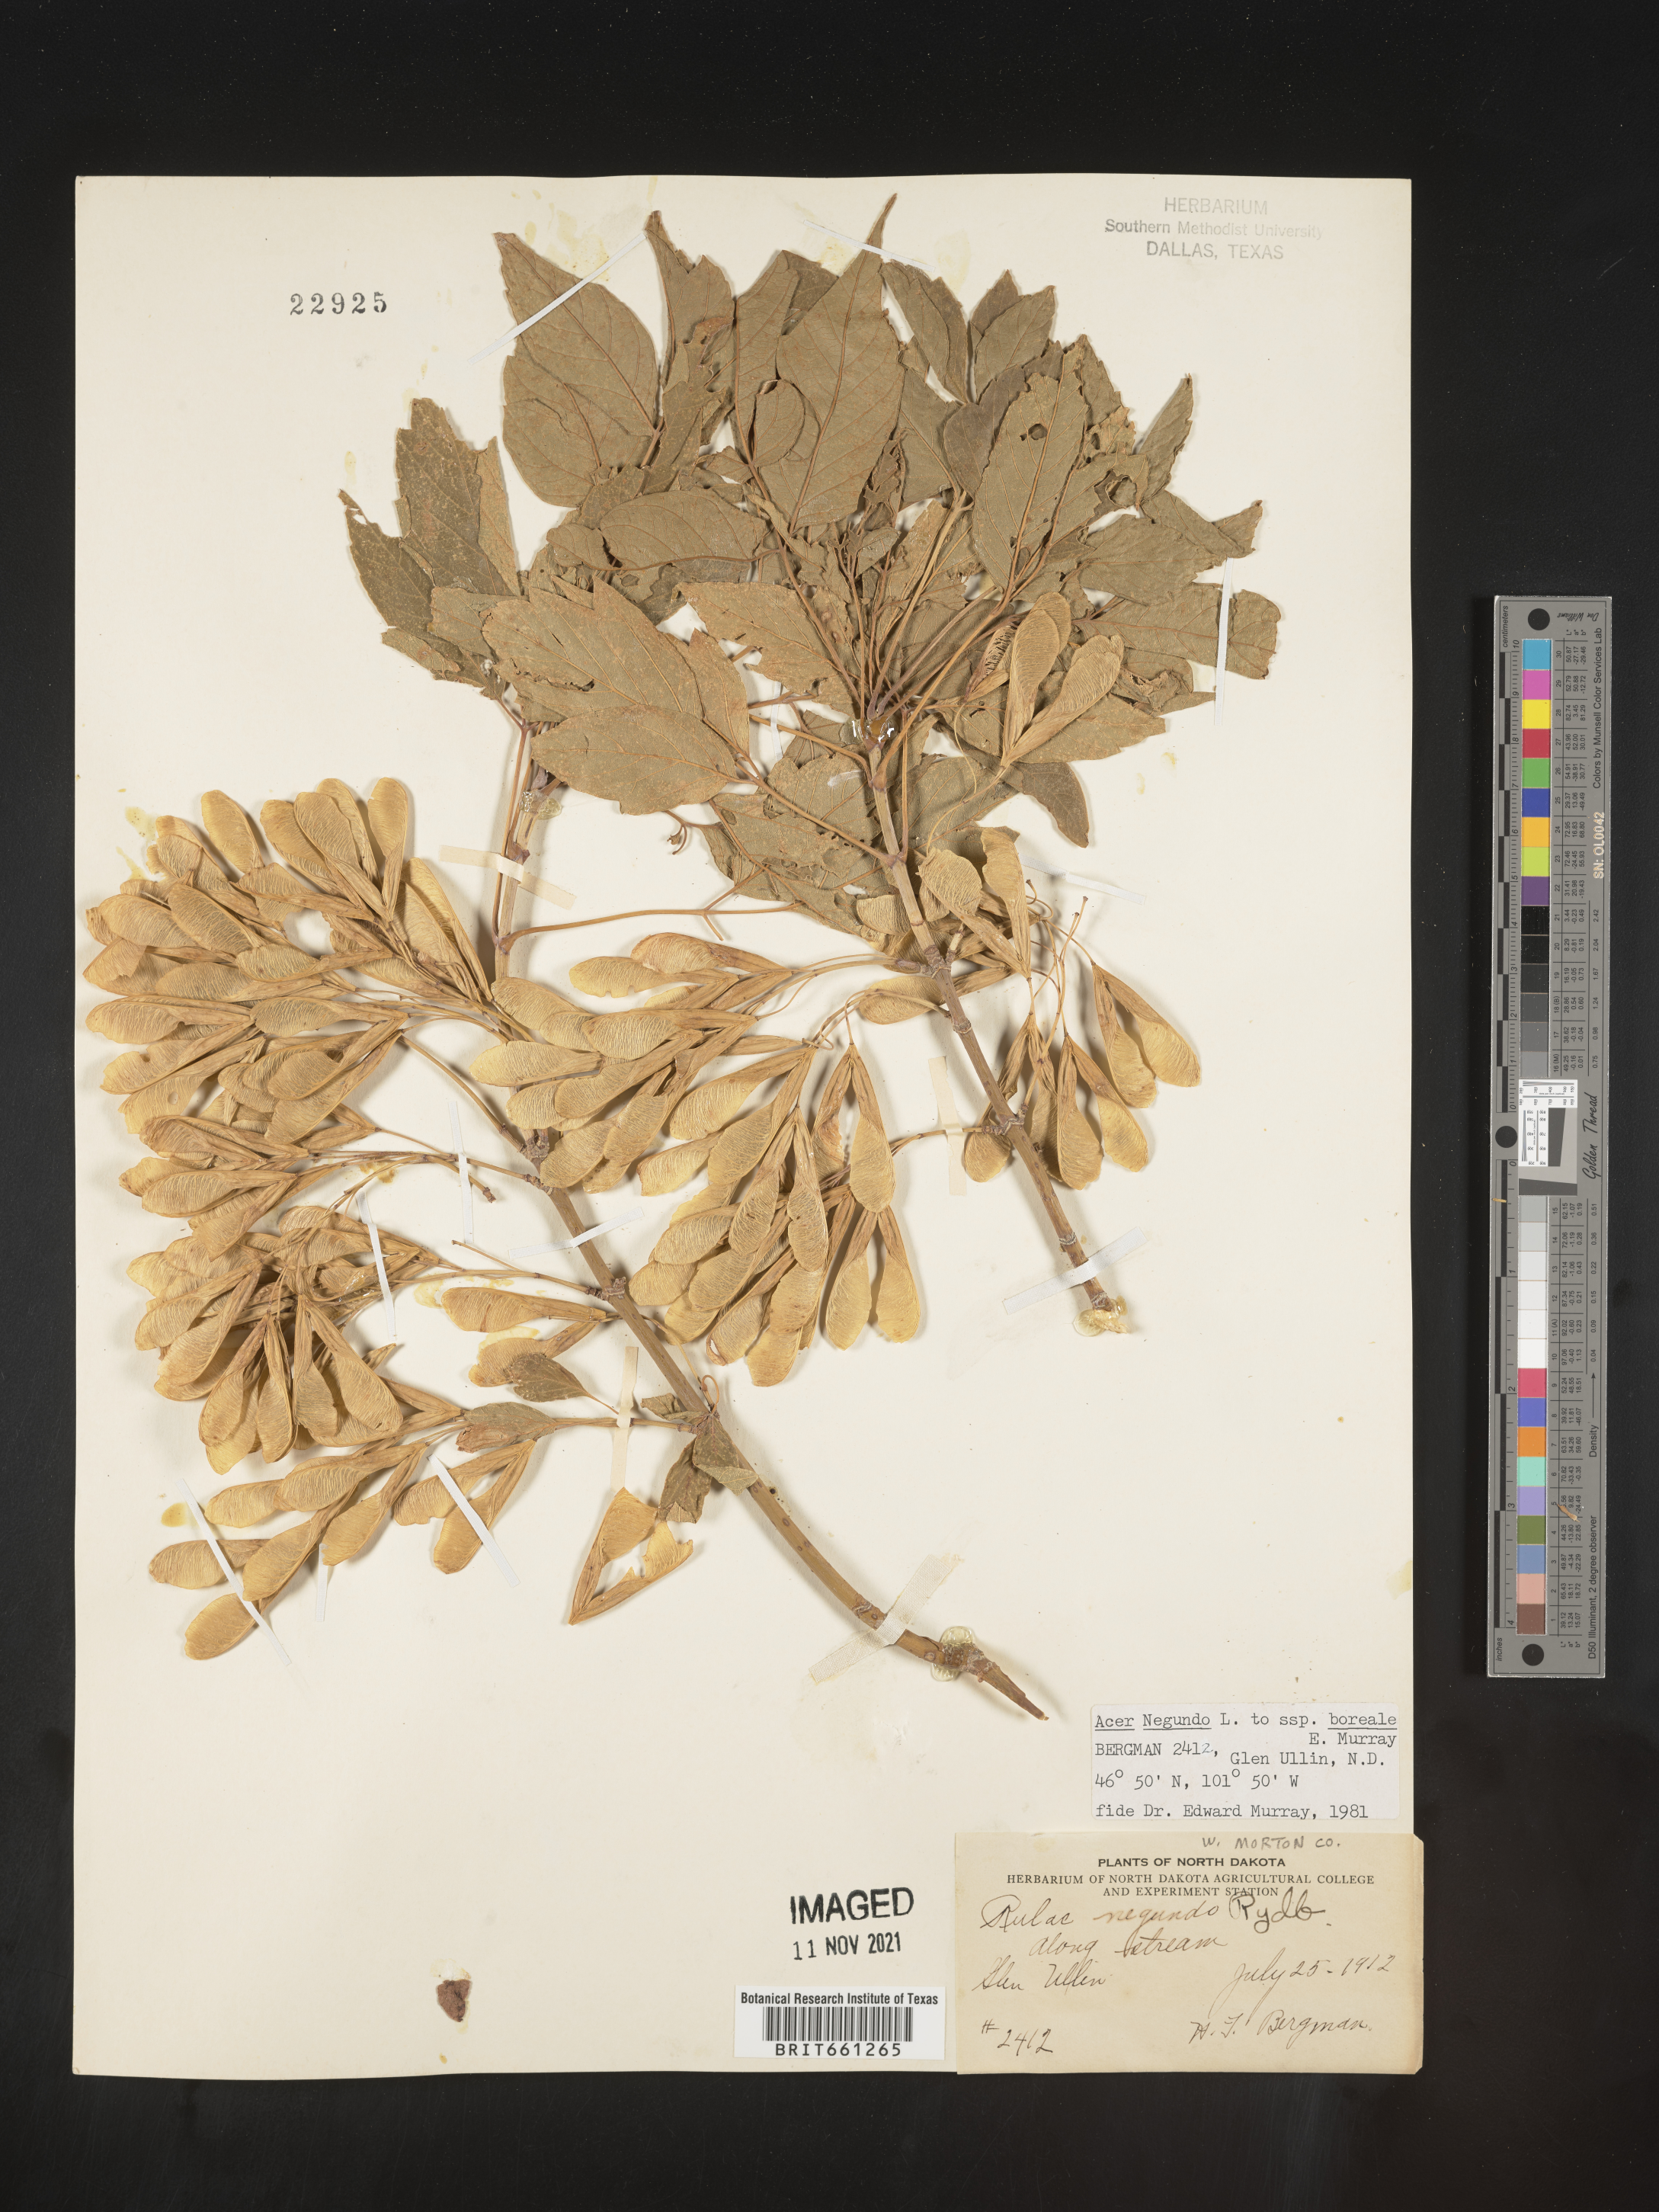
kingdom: Plantae
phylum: Tracheophyta
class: Magnoliopsida
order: Sapindales
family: Sapindaceae
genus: Acer
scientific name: Acer negundo
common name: Ashleaf maple
